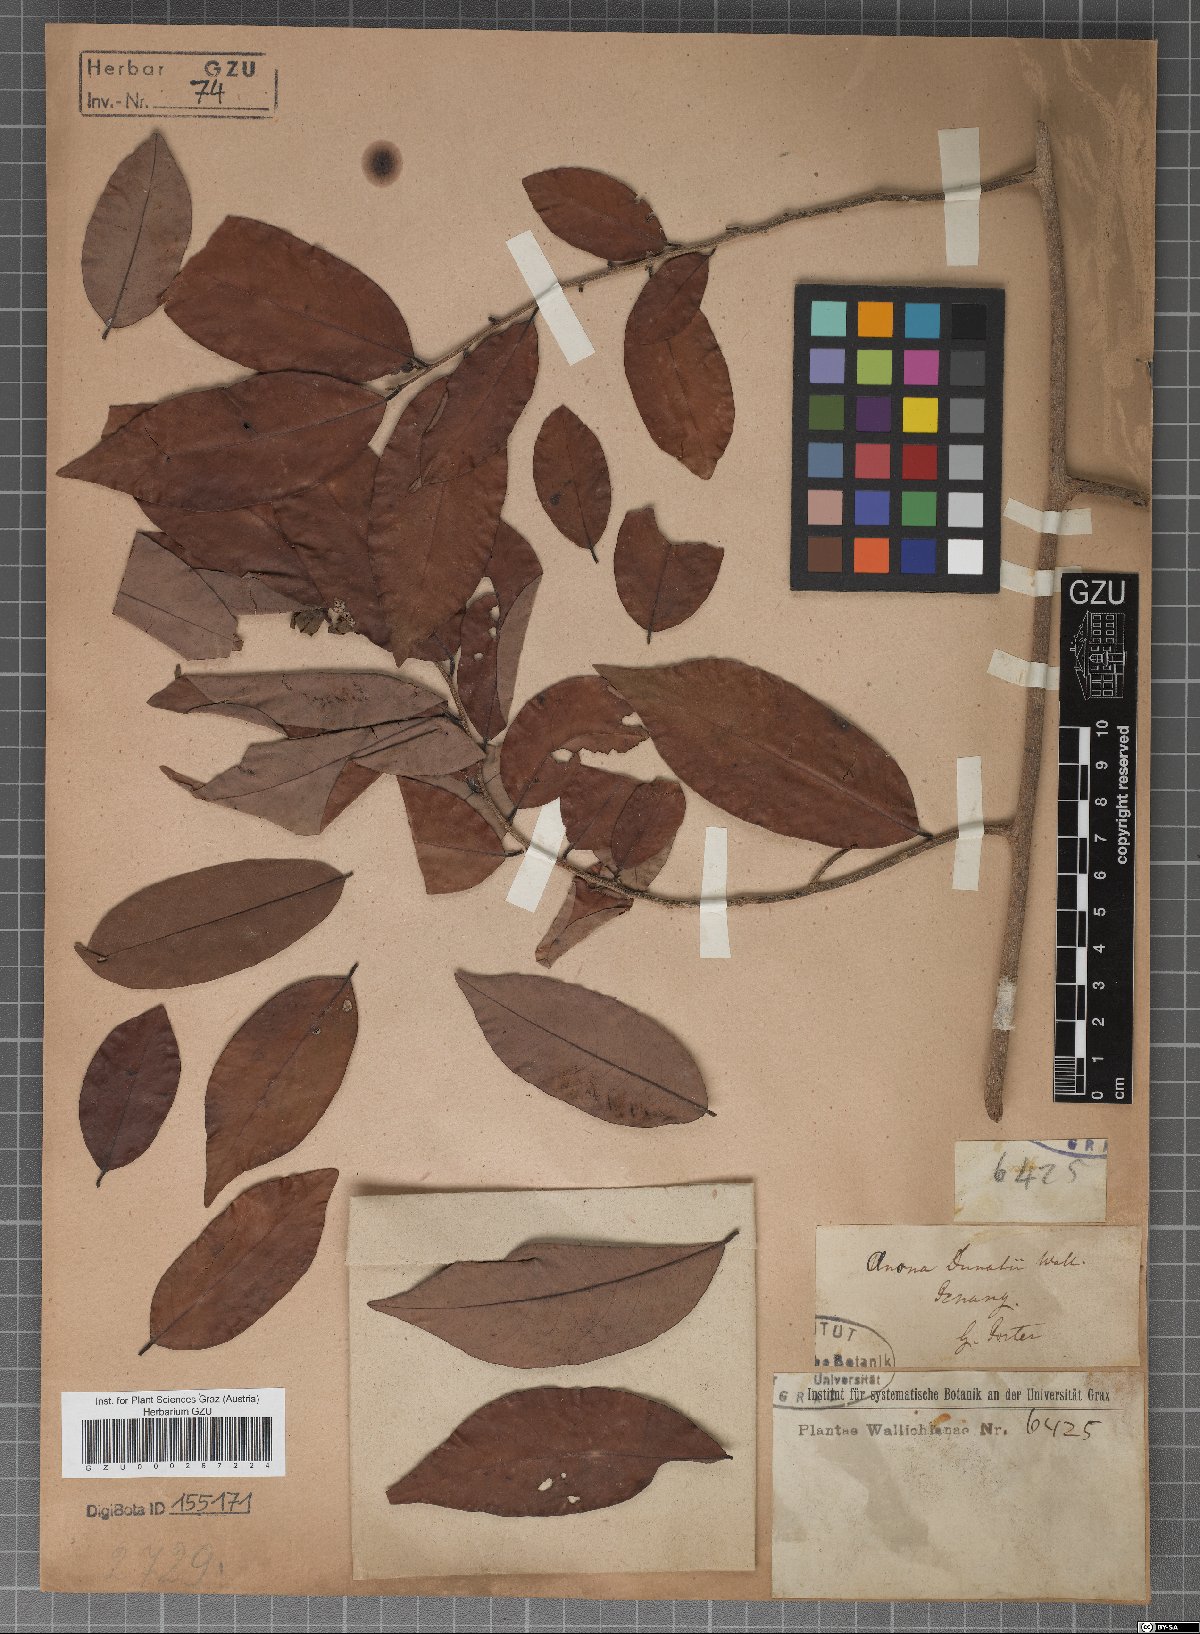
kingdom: Plantae
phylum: Tracheophyta
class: Magnoliopsida
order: Magnoliales
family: Annonaceae
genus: Annona
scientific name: Annona dunalii
